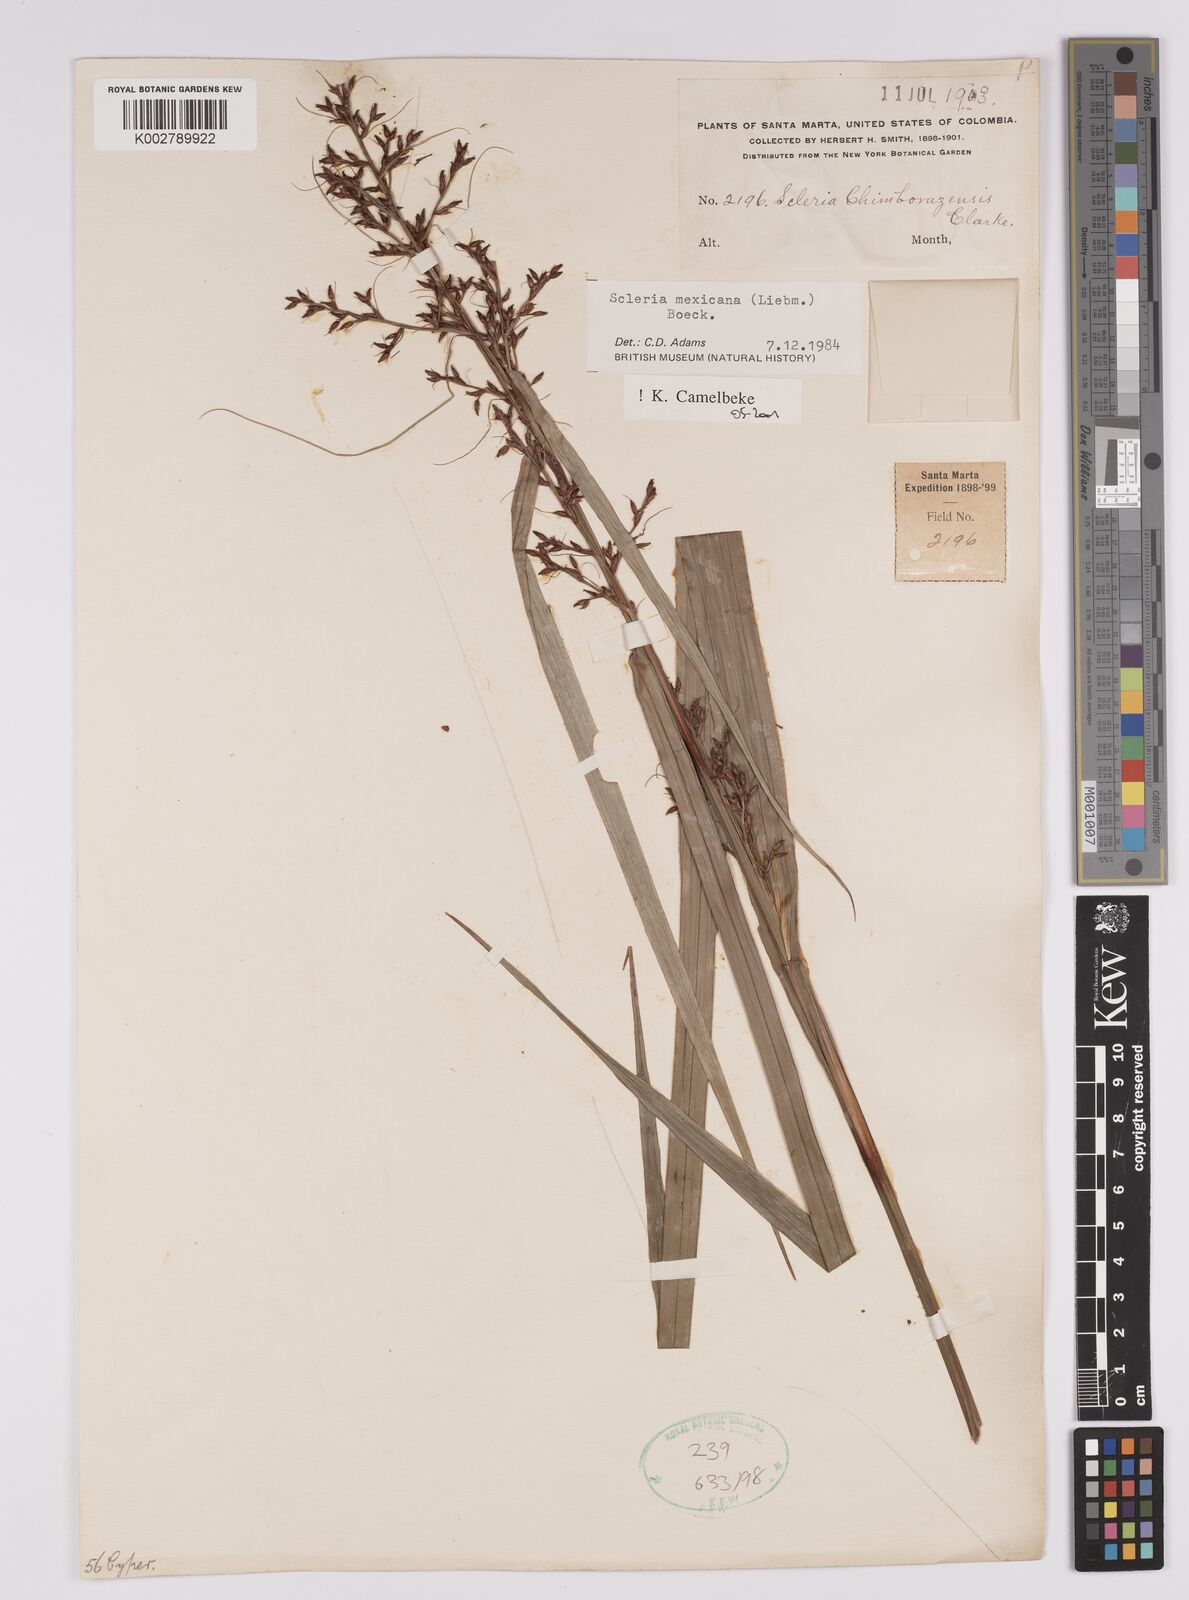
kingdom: Plantae
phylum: Tracheophyta
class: Liliopsida
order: Poales
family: Cyperaceae
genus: Scleria
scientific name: Scleria sororia
